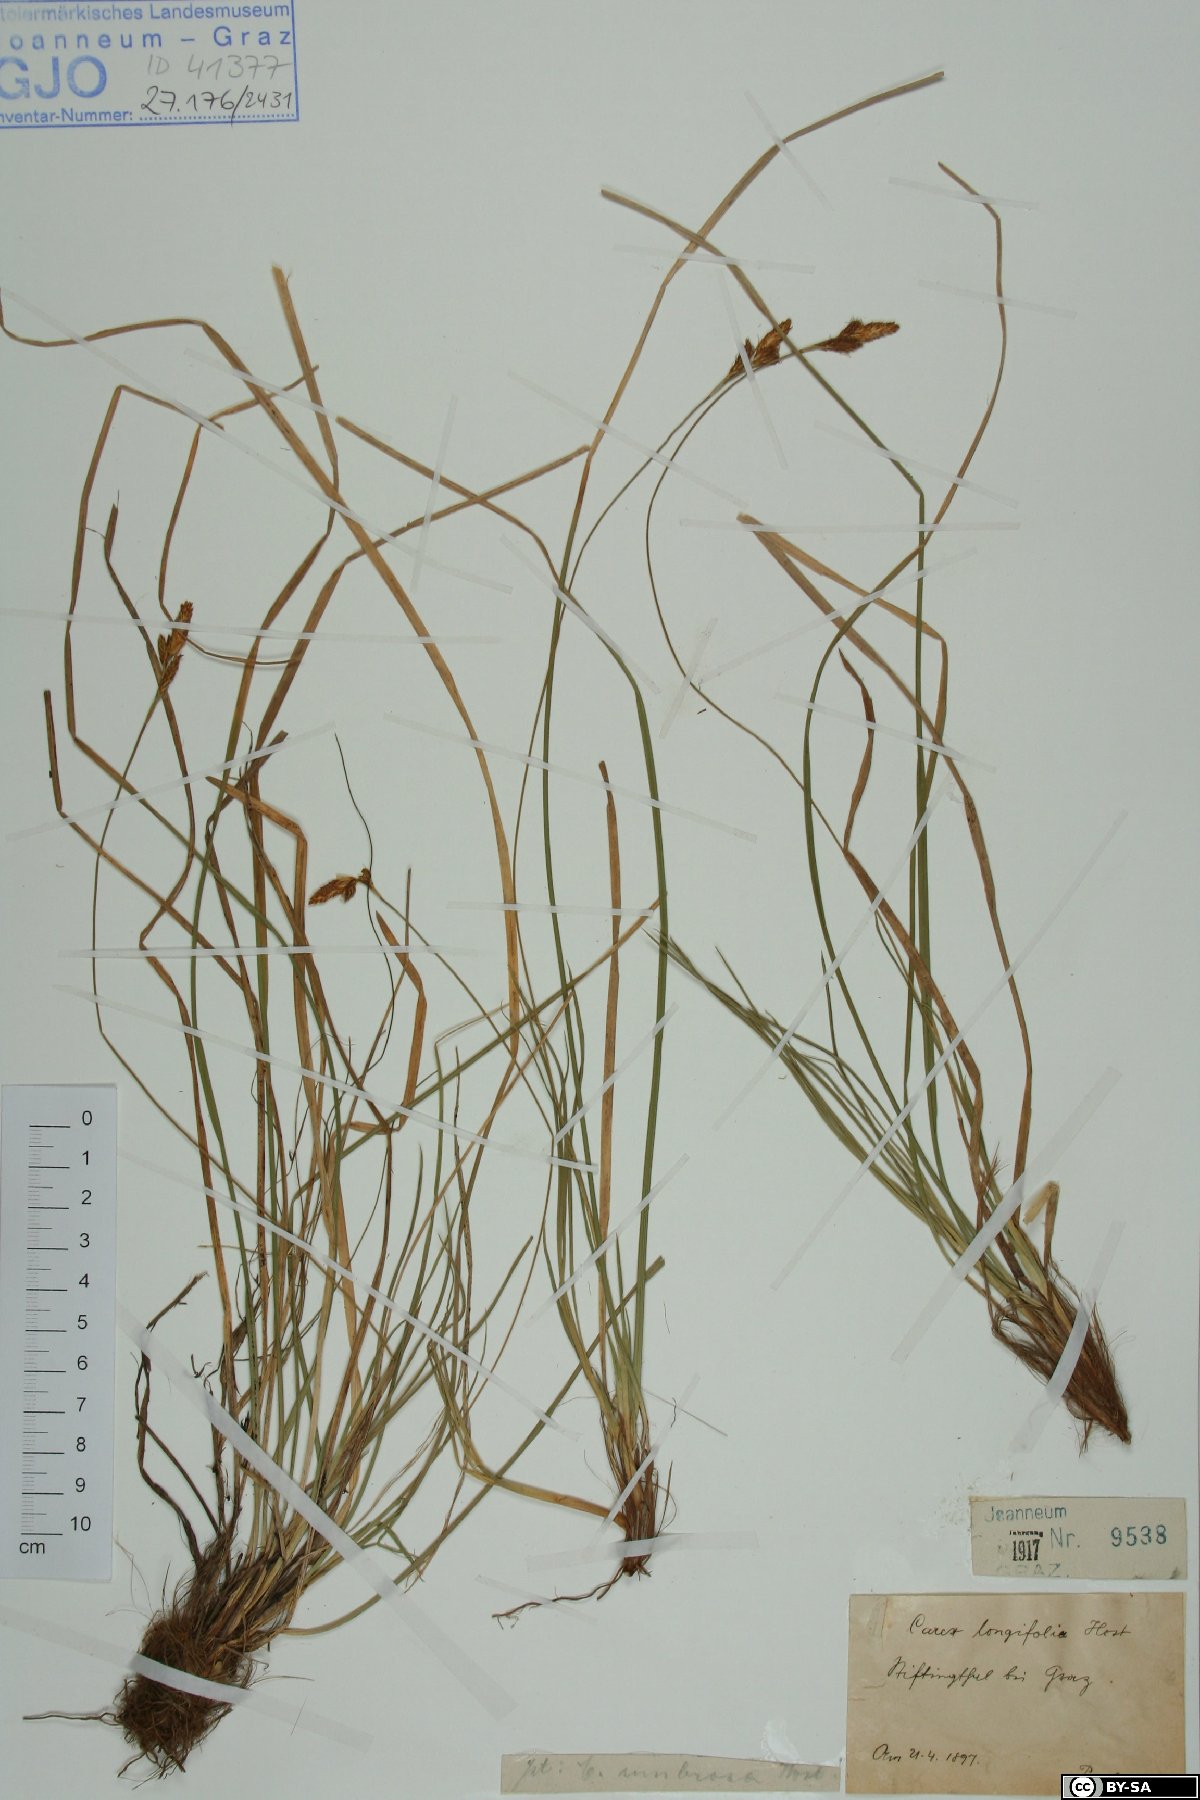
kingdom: Plantae
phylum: Tracheophyta
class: Liliopsida
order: Poales
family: Cyperaceae
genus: Carex
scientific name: Carex umbrosa
